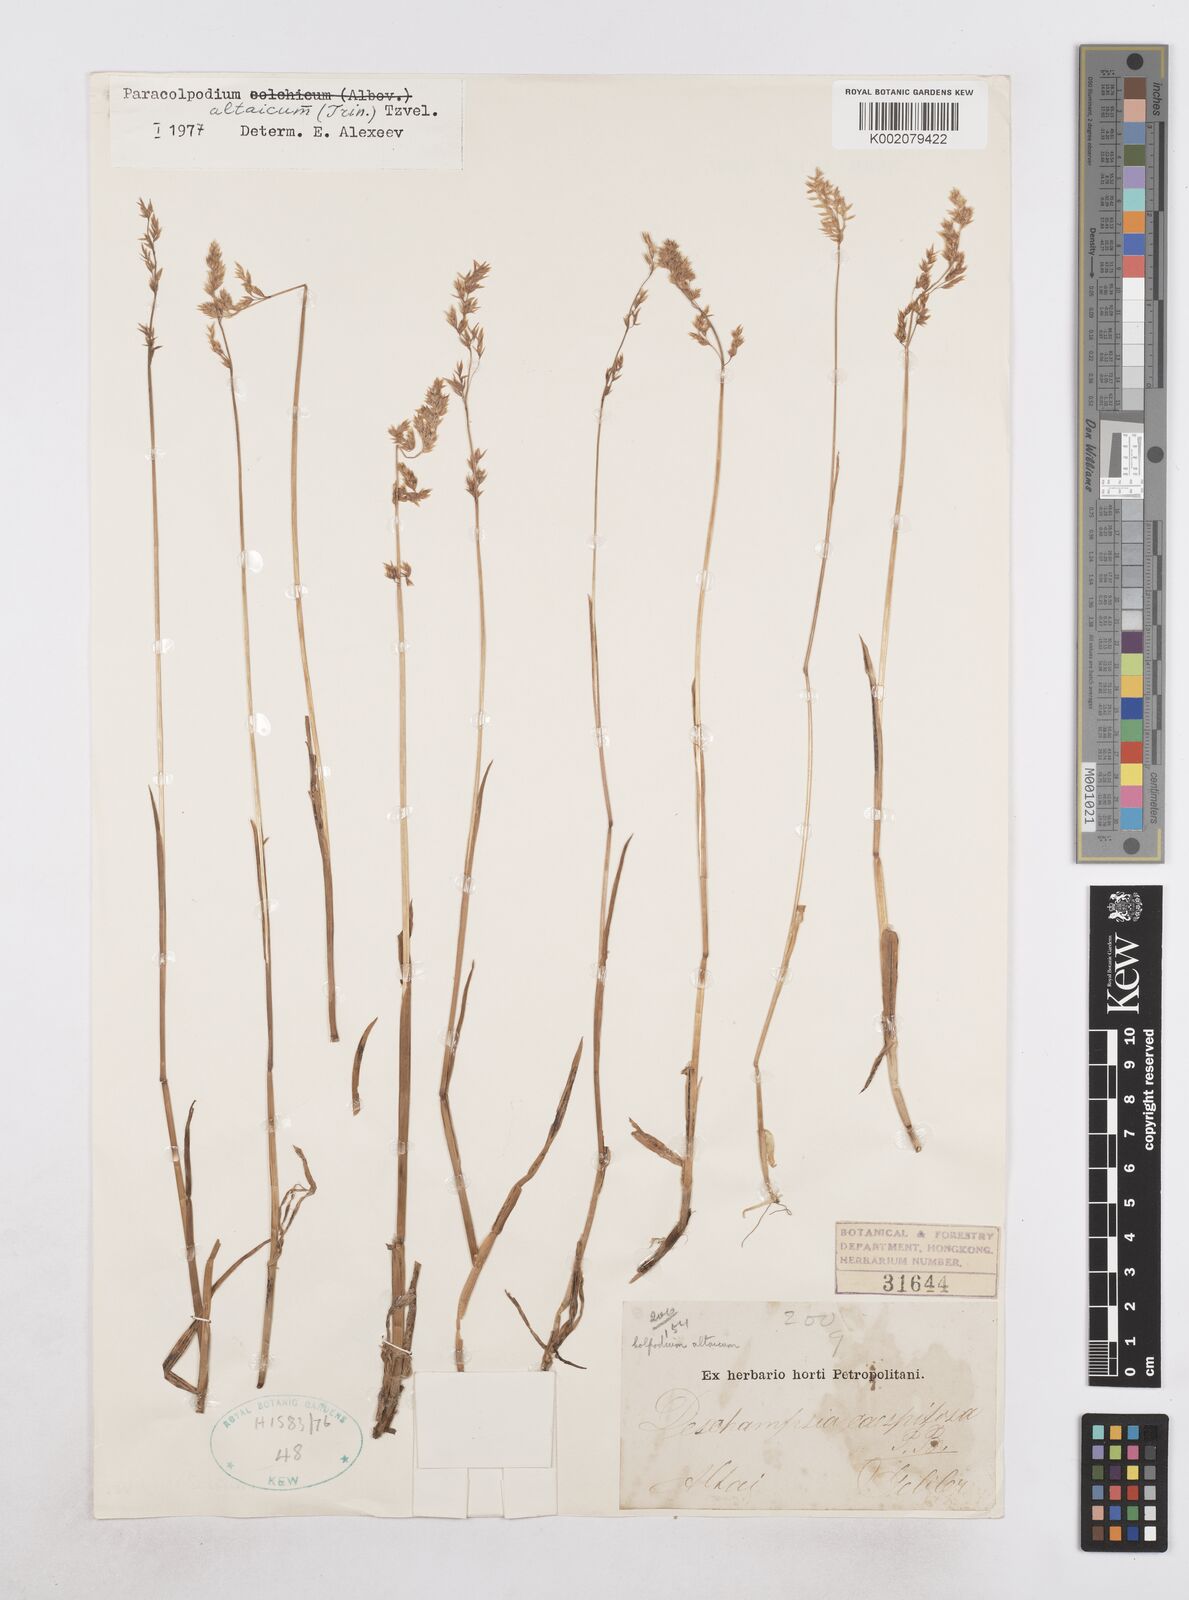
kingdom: Plantae
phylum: Tracheophyta
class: Liliopsida
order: Poales
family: Poaceae
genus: Paracolpodium
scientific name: Paracolpodium altaicum
